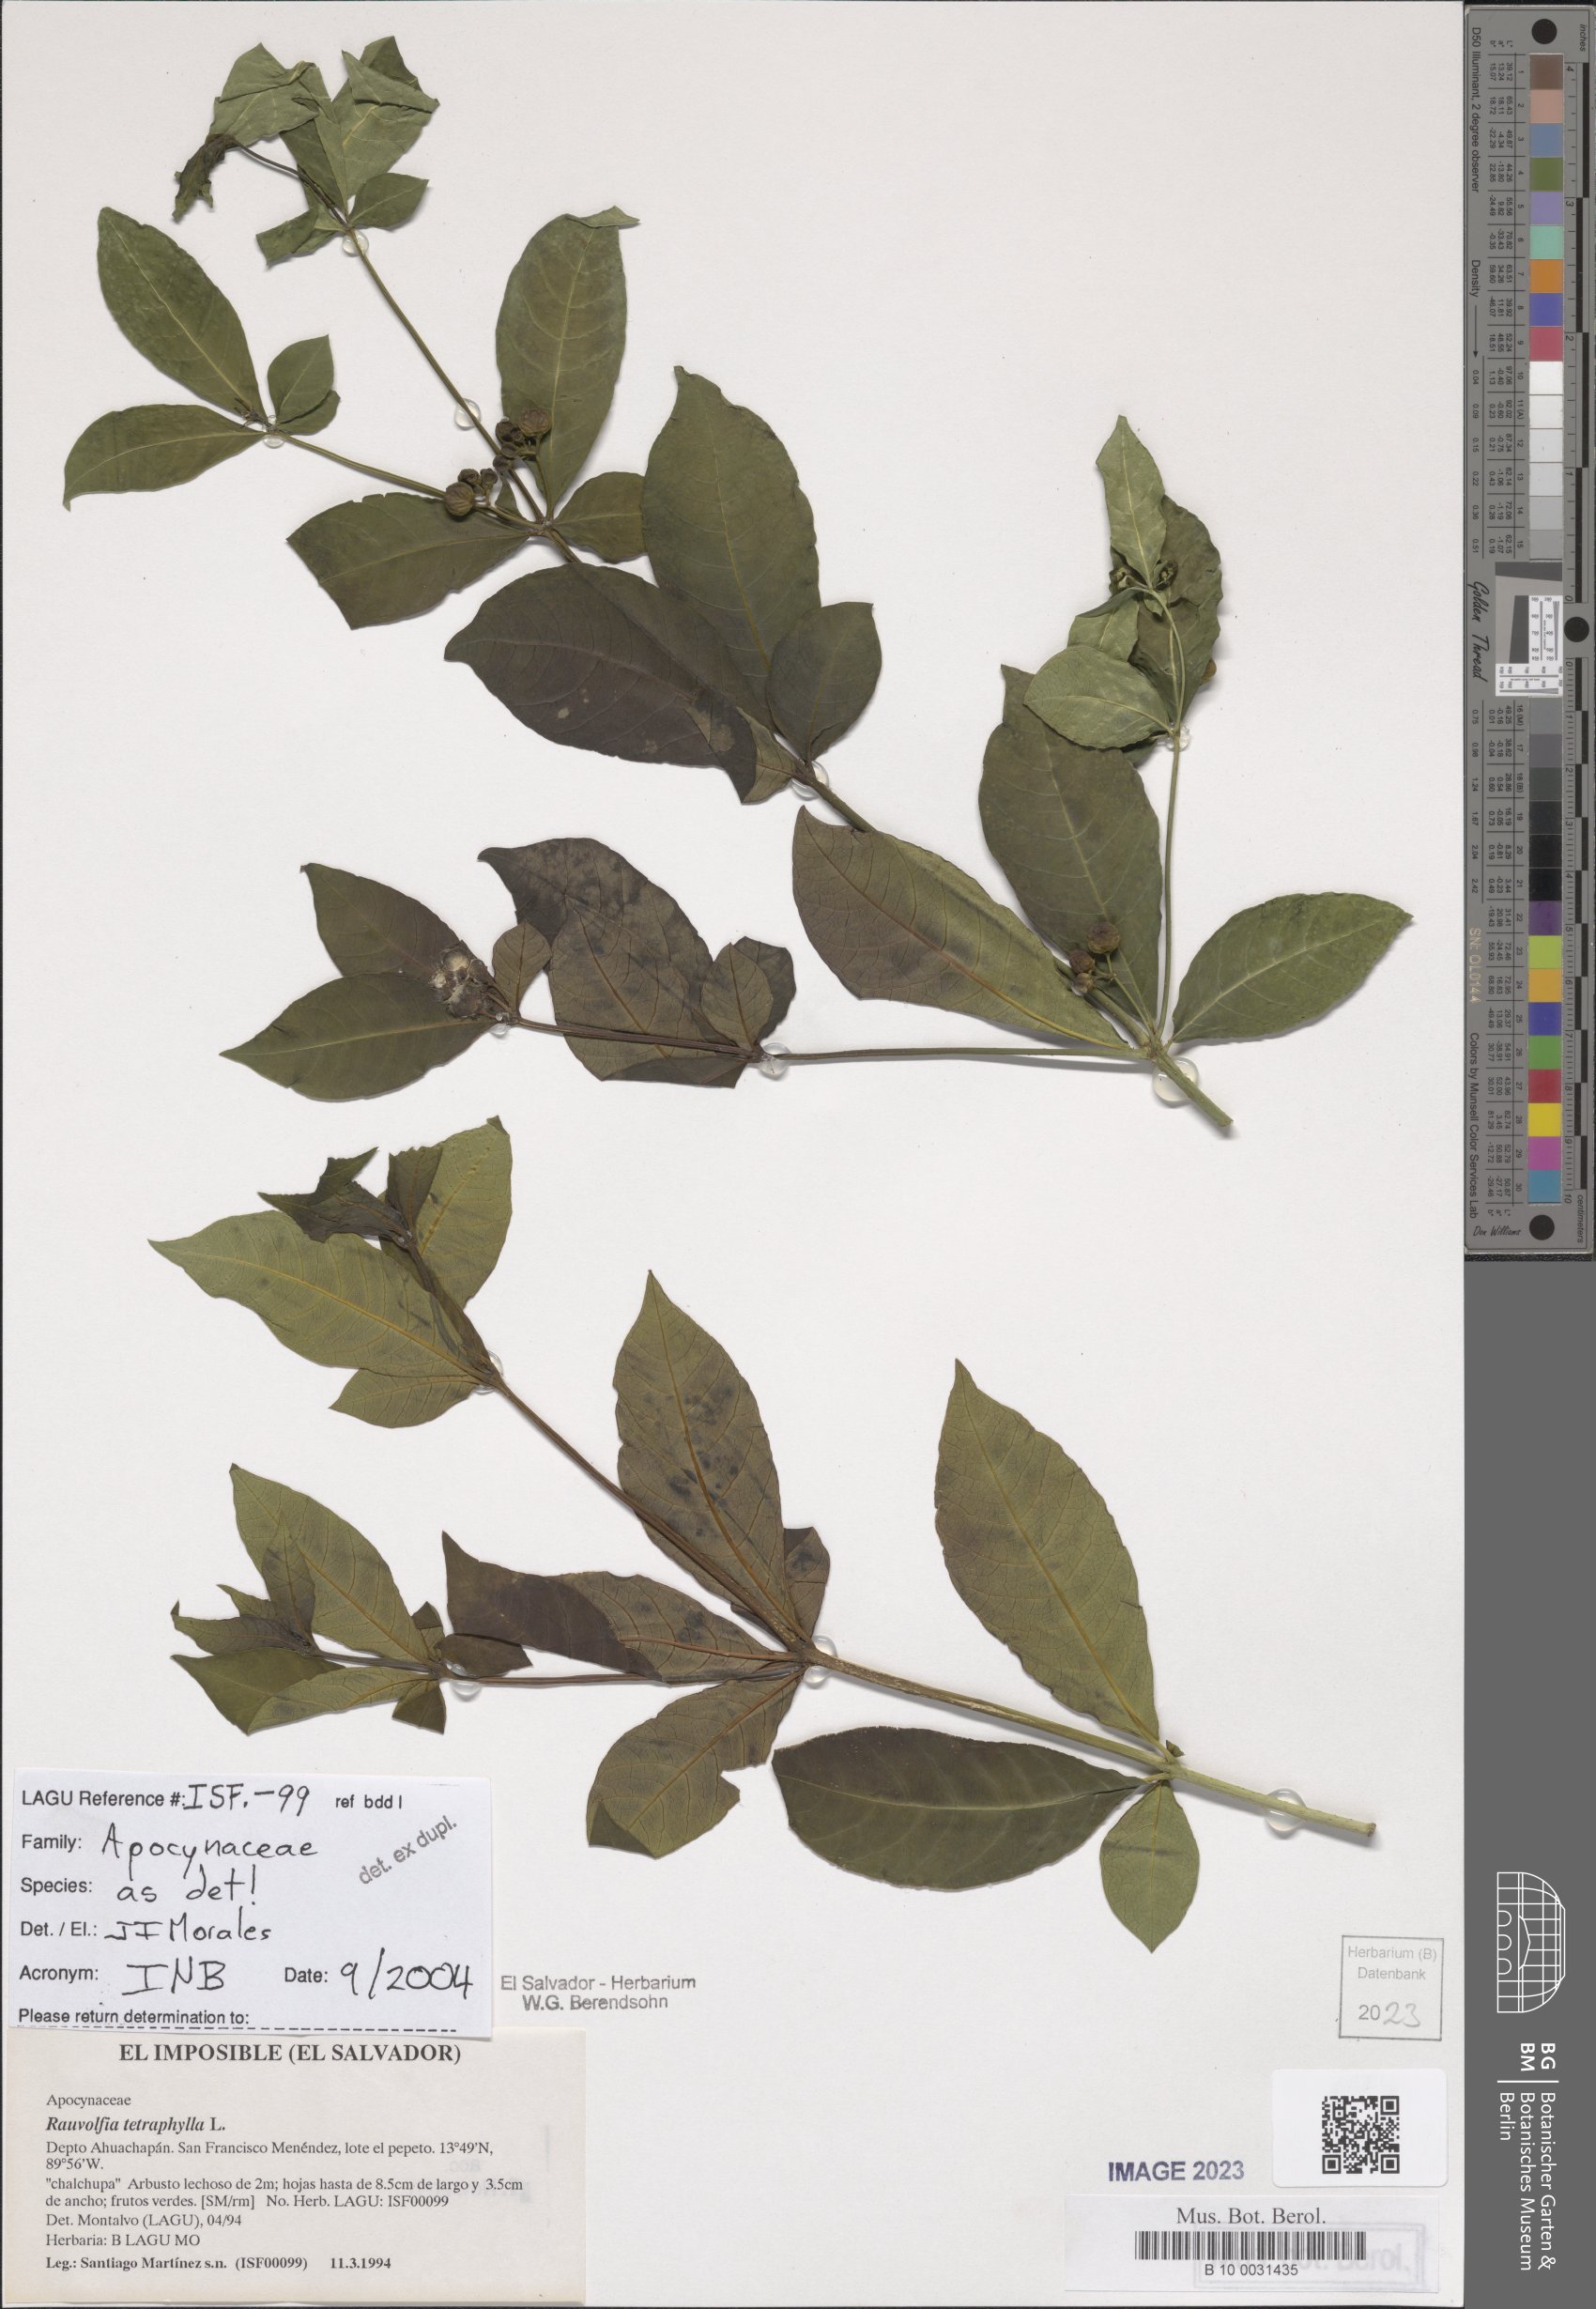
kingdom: Plantae
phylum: Tracheophyta
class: Magnoliopsida
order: Gentianales
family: Apocynaceae
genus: Rauvolfia
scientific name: Rauvolfia tetraphylla
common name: Four-leaf devil-pepper
